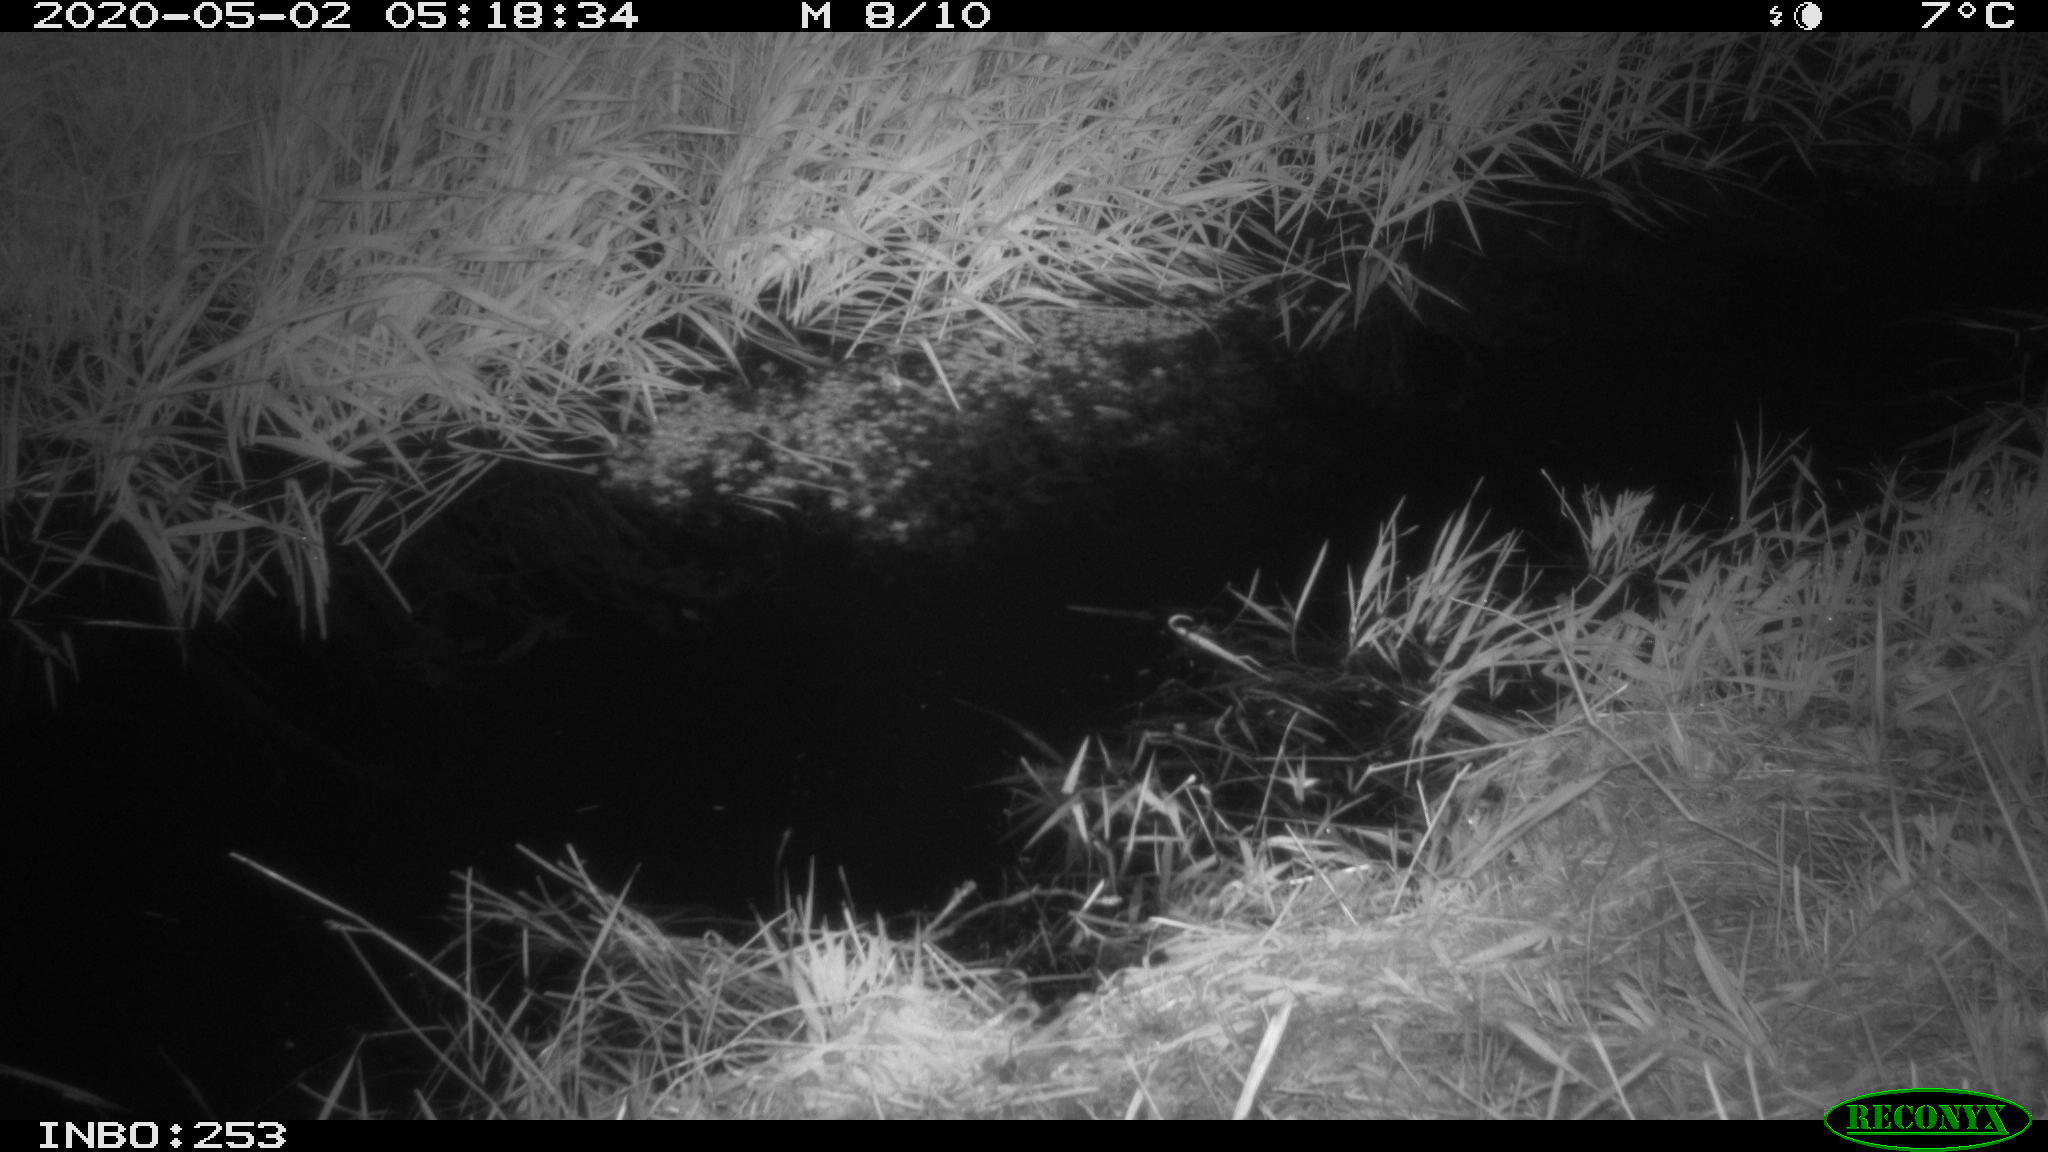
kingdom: Animalia
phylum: Chordata
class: Aves
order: Anseriformes
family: Anatidae
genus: Anas
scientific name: Anas platyrhynchos
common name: Mallard
